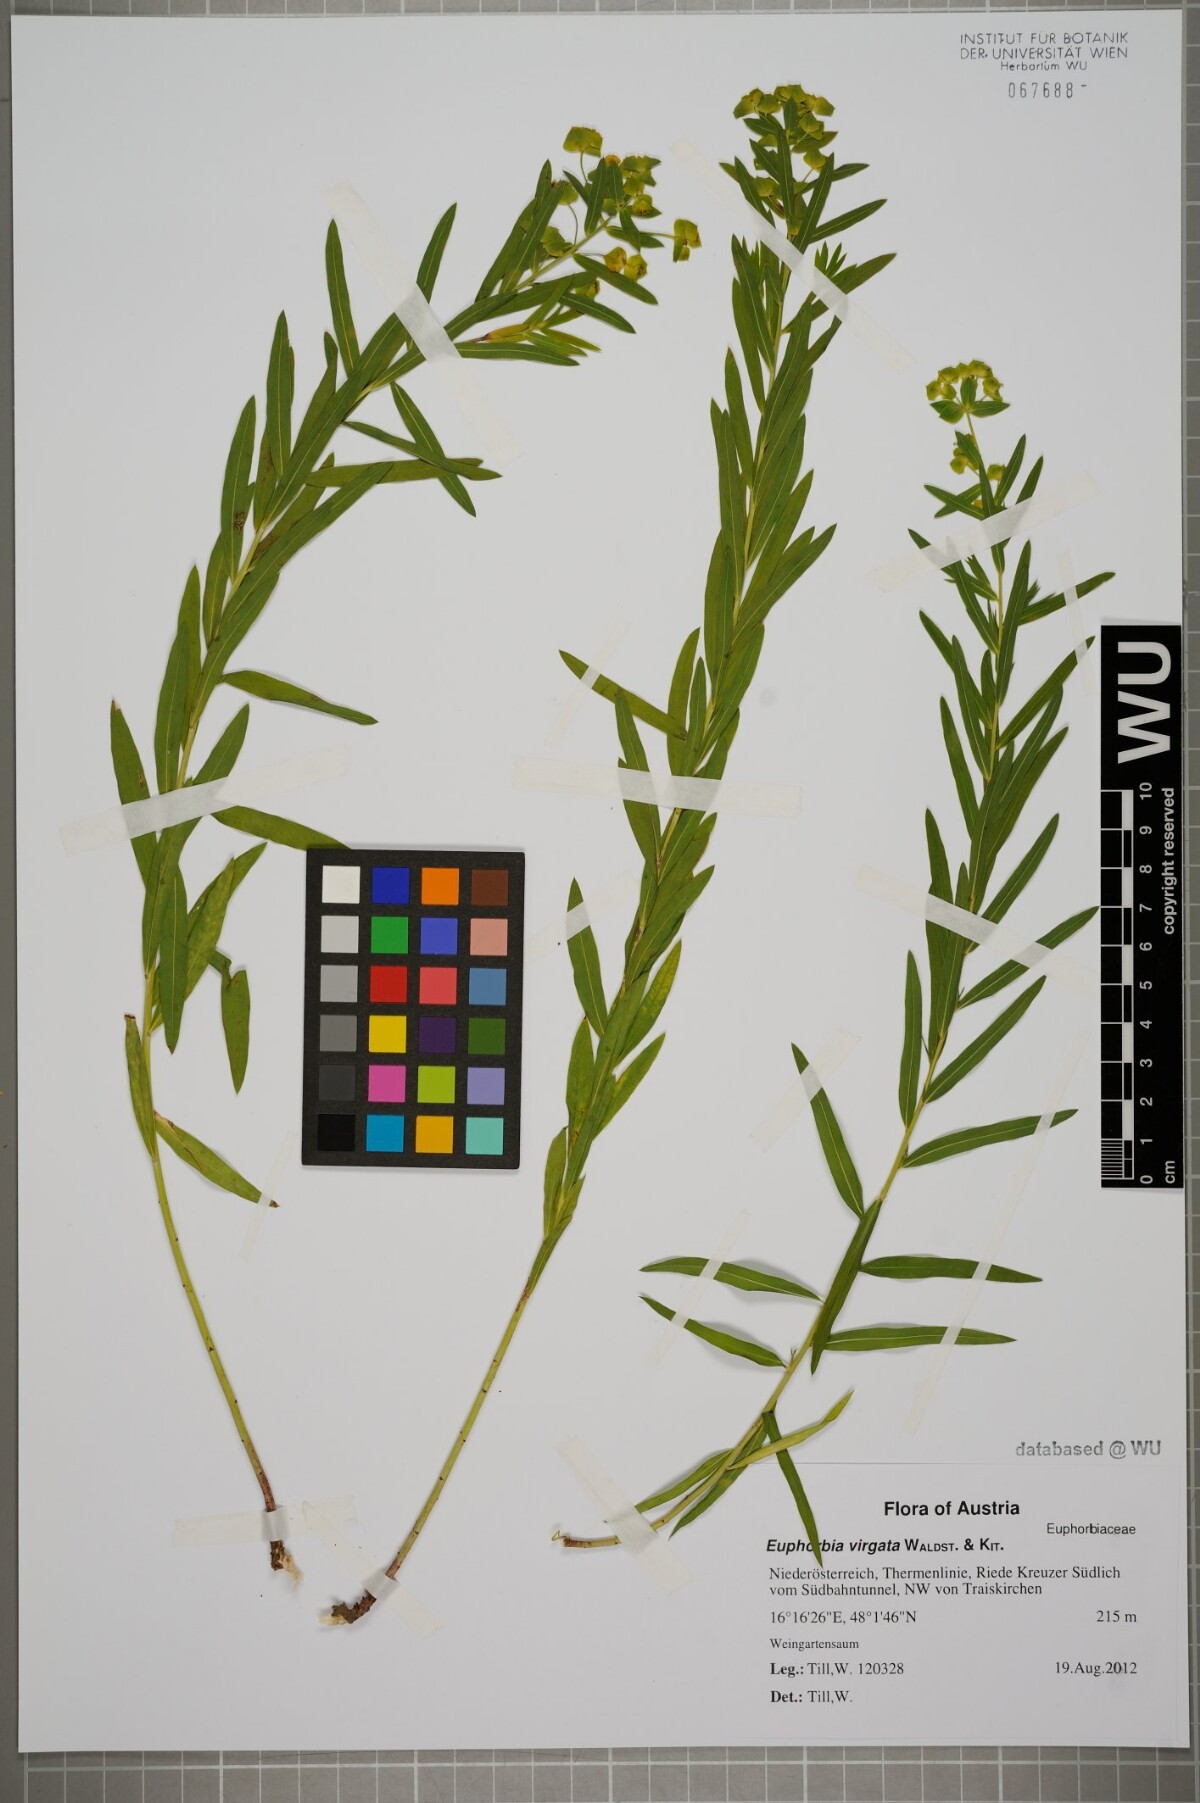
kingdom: Plantae
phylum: Tracheophyta
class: Magnoliopsida
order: Malpighiales
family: Euphorbiaceae
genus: Euphorbia
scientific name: Euphorbia virgata
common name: Leafy spurge
